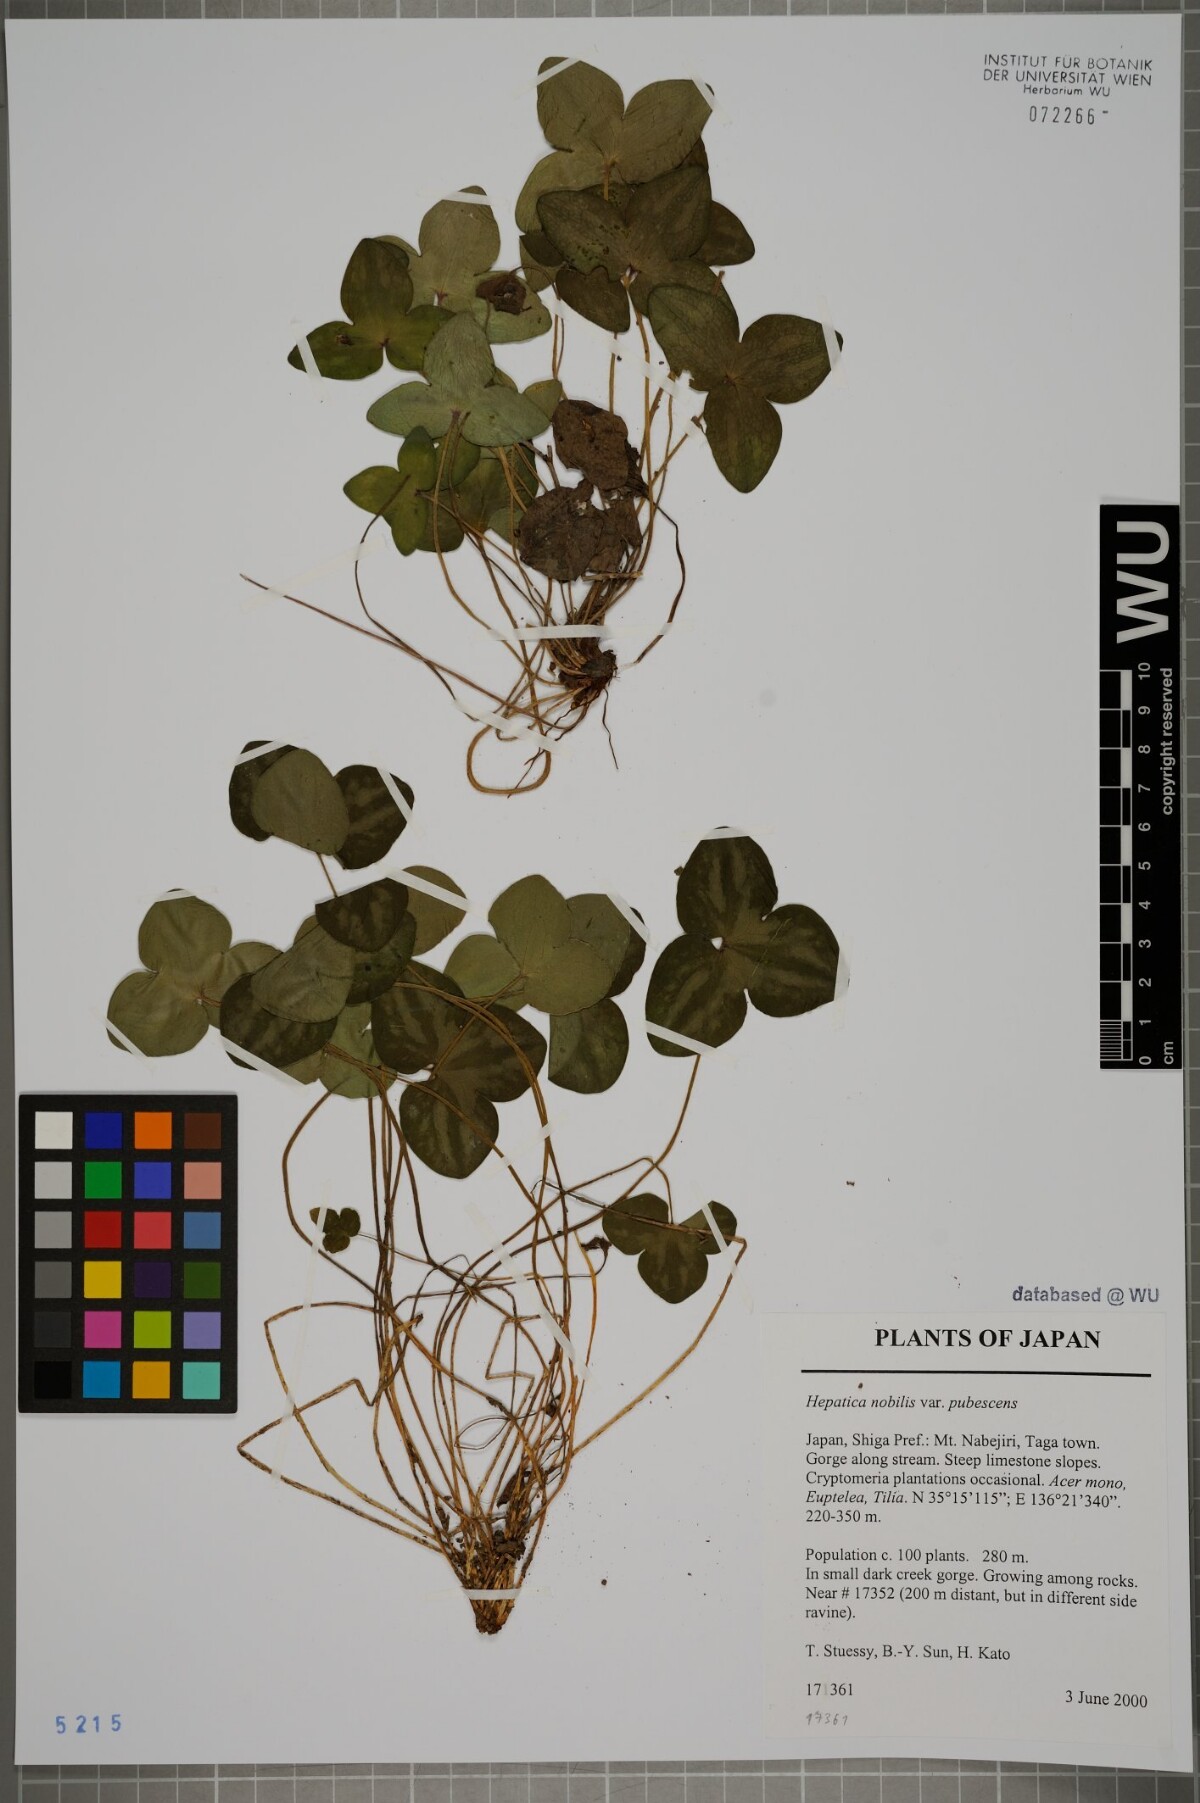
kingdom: Plantae
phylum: Tracheophyta
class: Magnoliopsida
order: Ranunculales
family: Ranunculaceae
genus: Hepatica
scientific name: Hepatica nobilis
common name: Liverleaf
